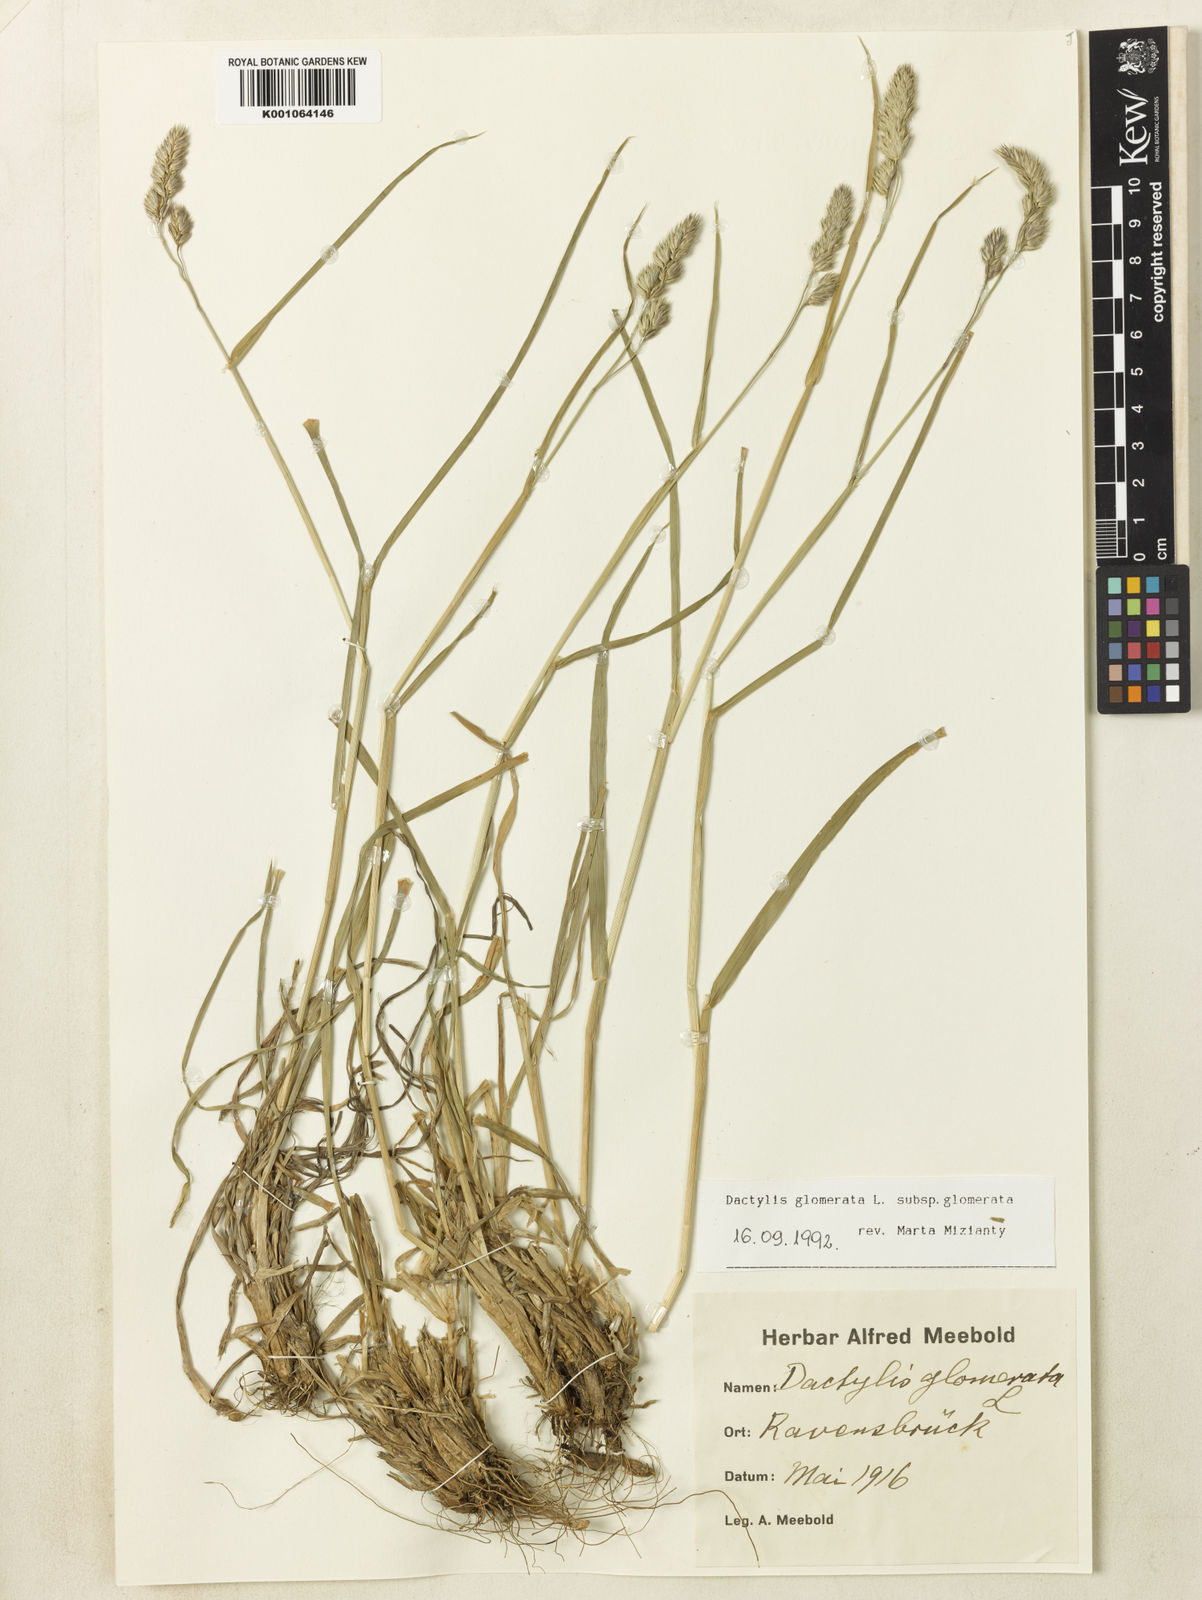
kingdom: Plantae
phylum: Tracheophyta
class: Liliopsida
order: Poales
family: Poaceae
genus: Dactylis
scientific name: Dactylis glomerata
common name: Orchardgrass
